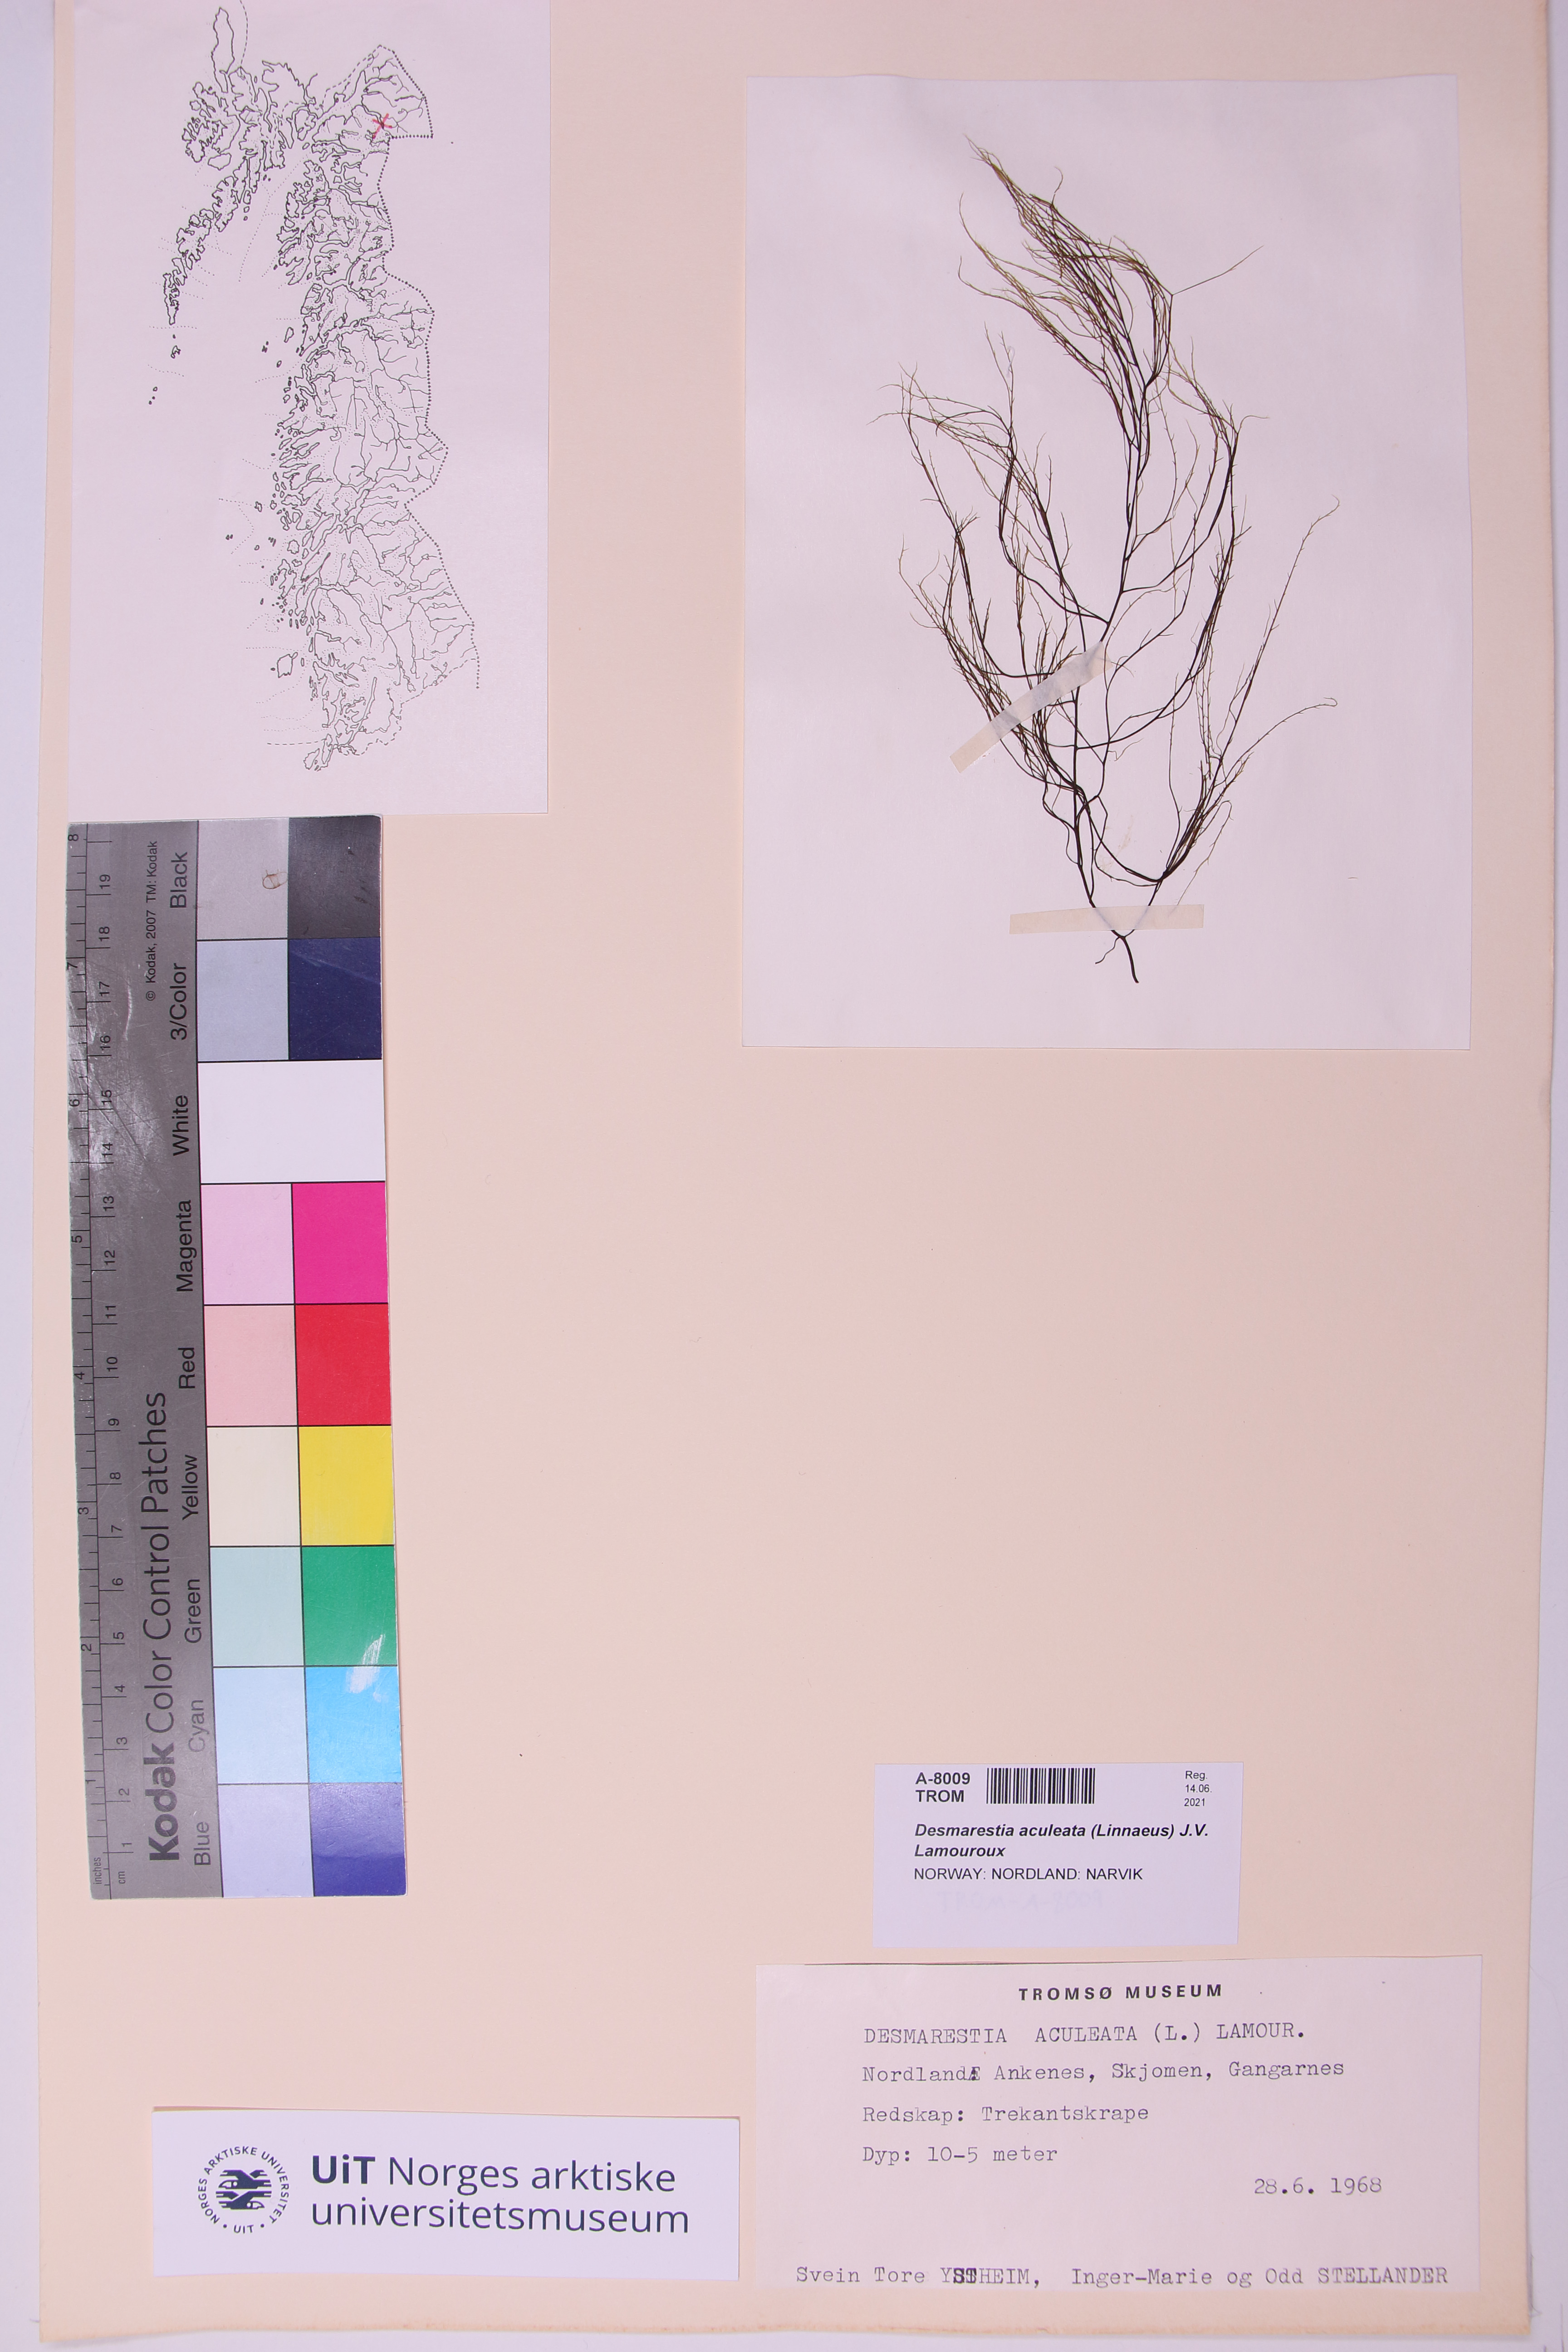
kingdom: Chromista
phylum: Ochrophyta
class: Phaeophyceae
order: Desmarestiales
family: Desmarestiaceae
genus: Desmarestia
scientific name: Desmarestia aculeata
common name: Witch's hair
